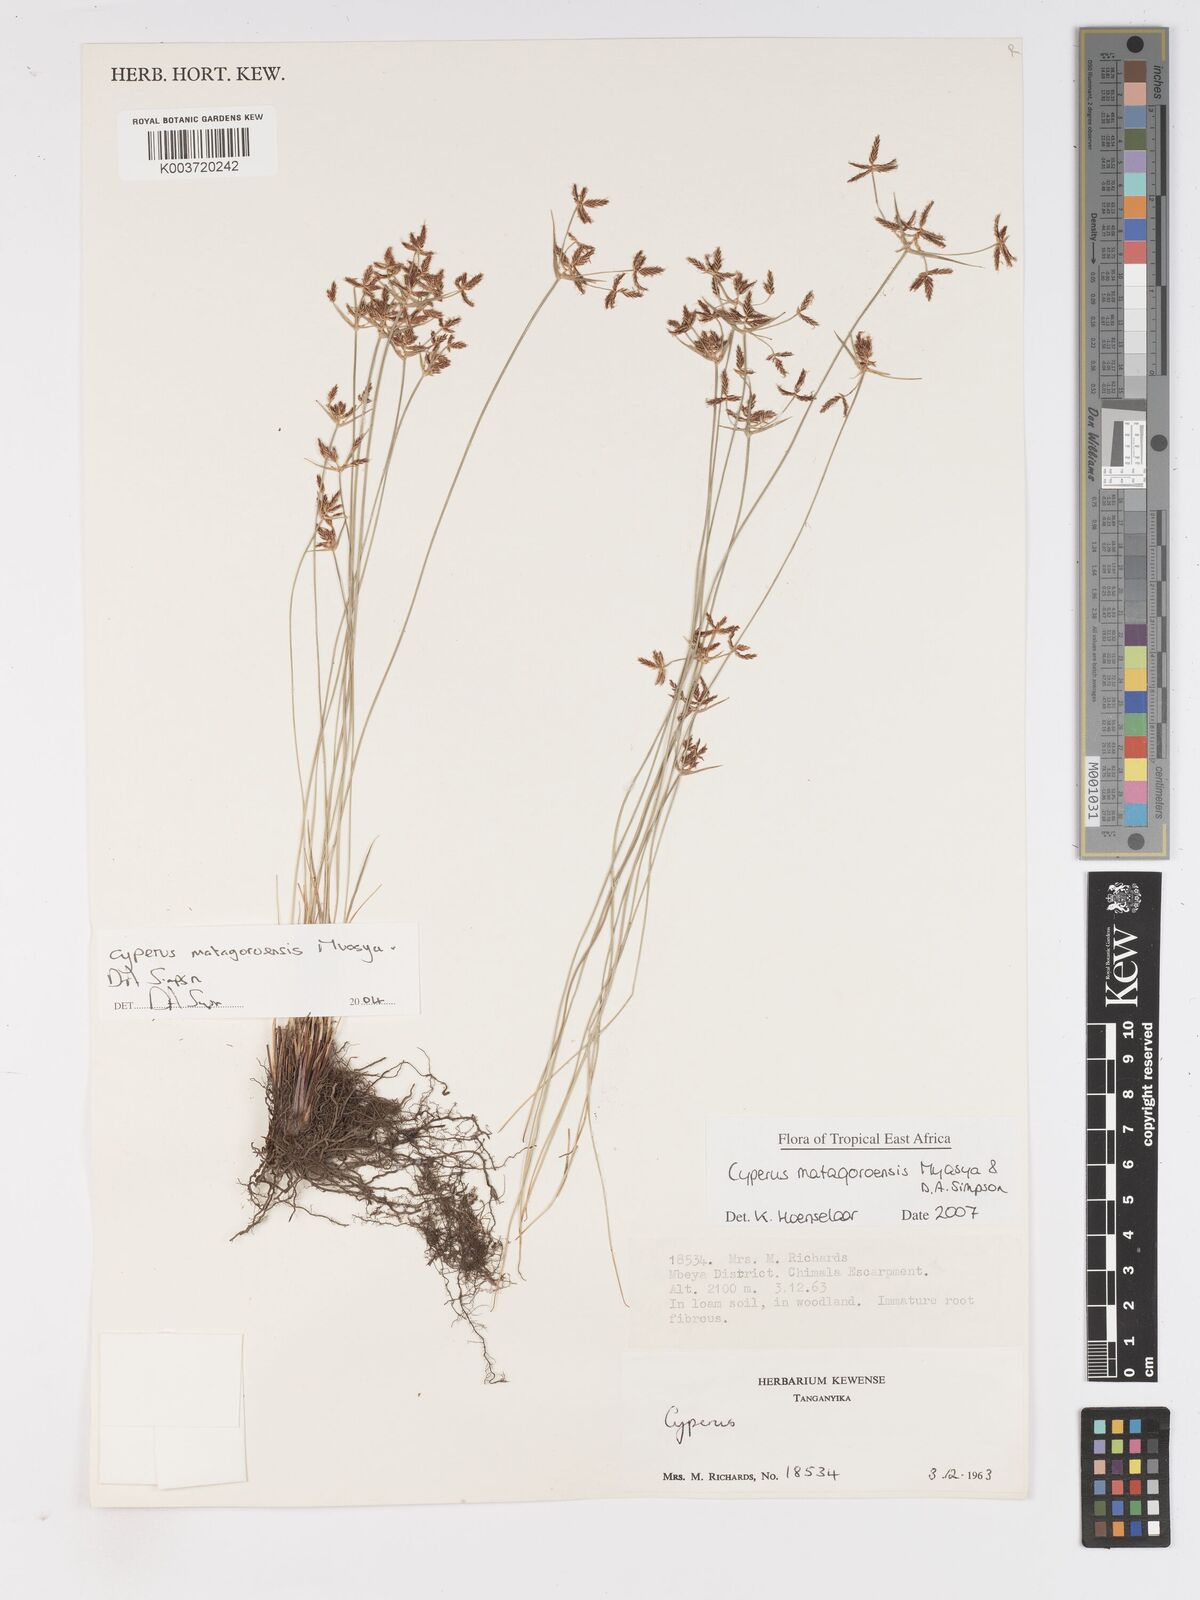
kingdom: Plantae
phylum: Tracheophyta
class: Liliopsida
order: Poales
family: Cyperaceae
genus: Cyperus
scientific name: Cyperus matagoroensis
